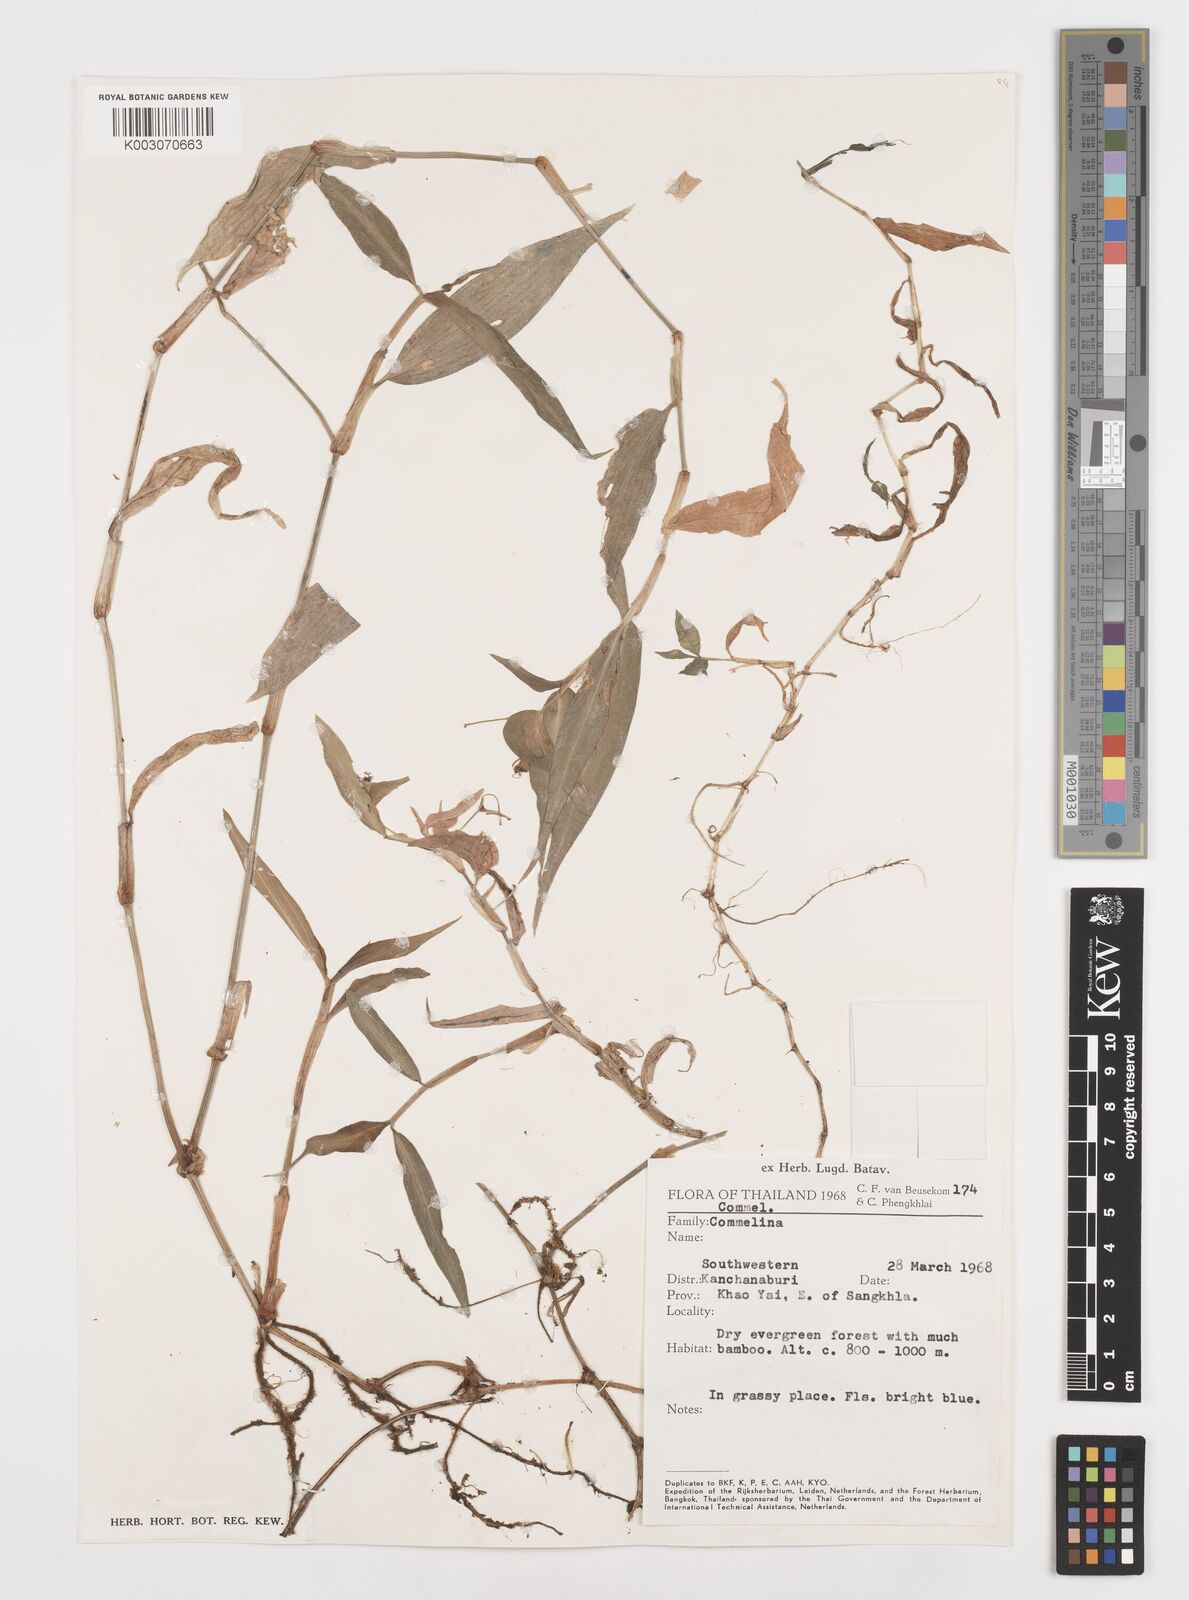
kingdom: Plantae
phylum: Tracheophyta
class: Liliopsida
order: Commelinales
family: Commelinaceae
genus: Commelina
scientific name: Commelina
